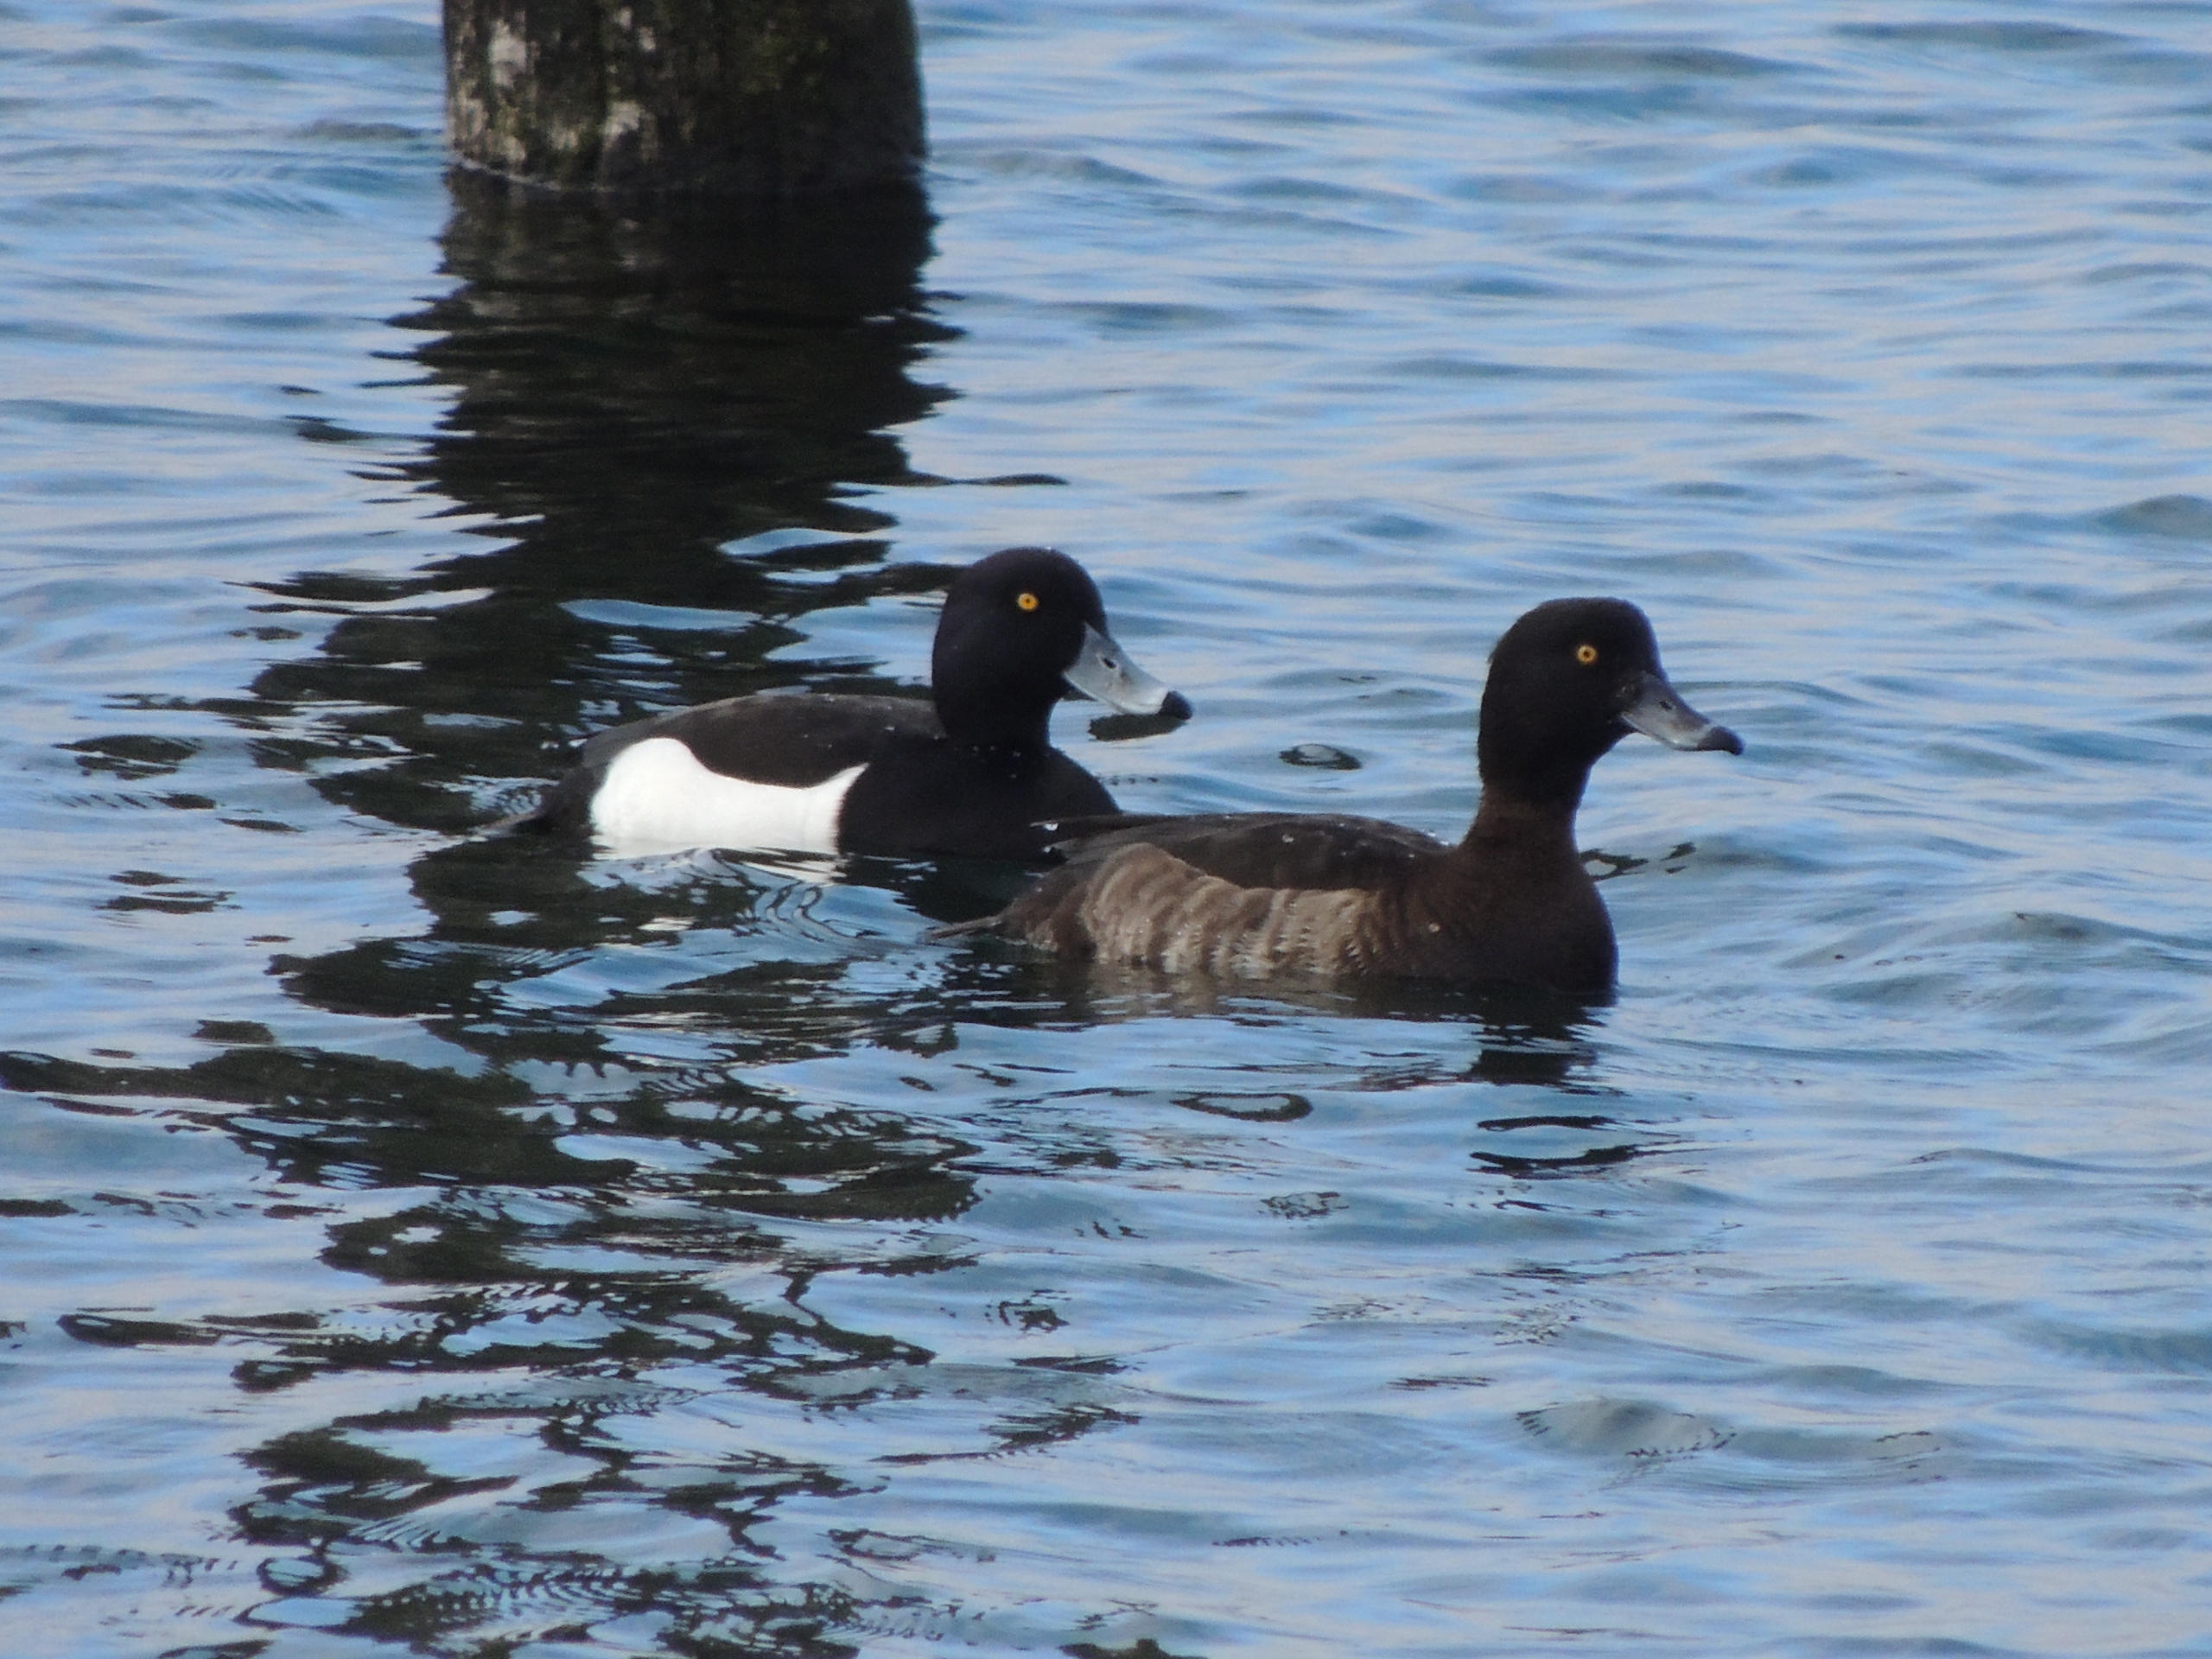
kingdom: Animalia
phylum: Chordata
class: Aves
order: Anseriformes
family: Anatidae
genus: Aythya
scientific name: Aythya fuligula
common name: Troldand
